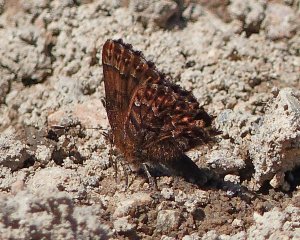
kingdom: Animalia
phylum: Arthropoda
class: Insecta
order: Lepidoptera
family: Lycaenidae
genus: Incisalia
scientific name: Incisalia eryphon
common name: Western Pine Elfin
